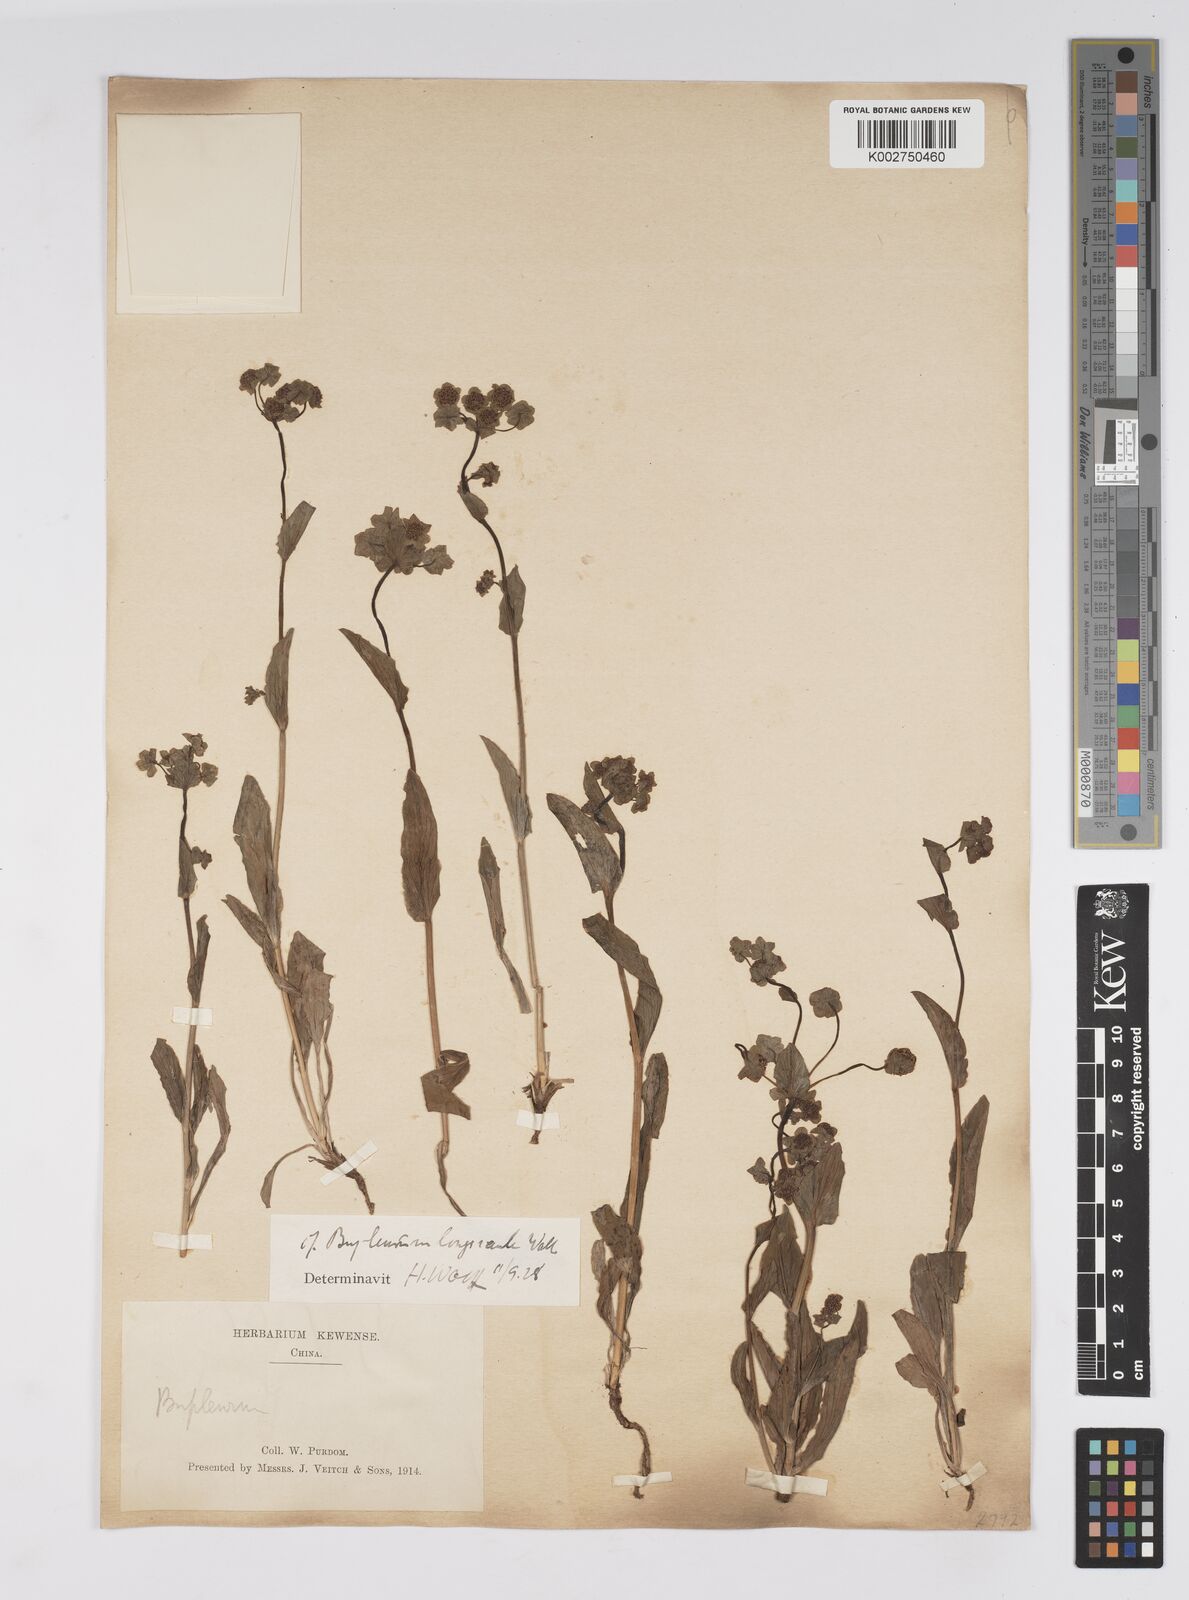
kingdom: Plantae
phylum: Tracheophyta
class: Magnoliopsida
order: Apiales
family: Apiaceae
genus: Bupleurum
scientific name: Bupleurum longicaule
